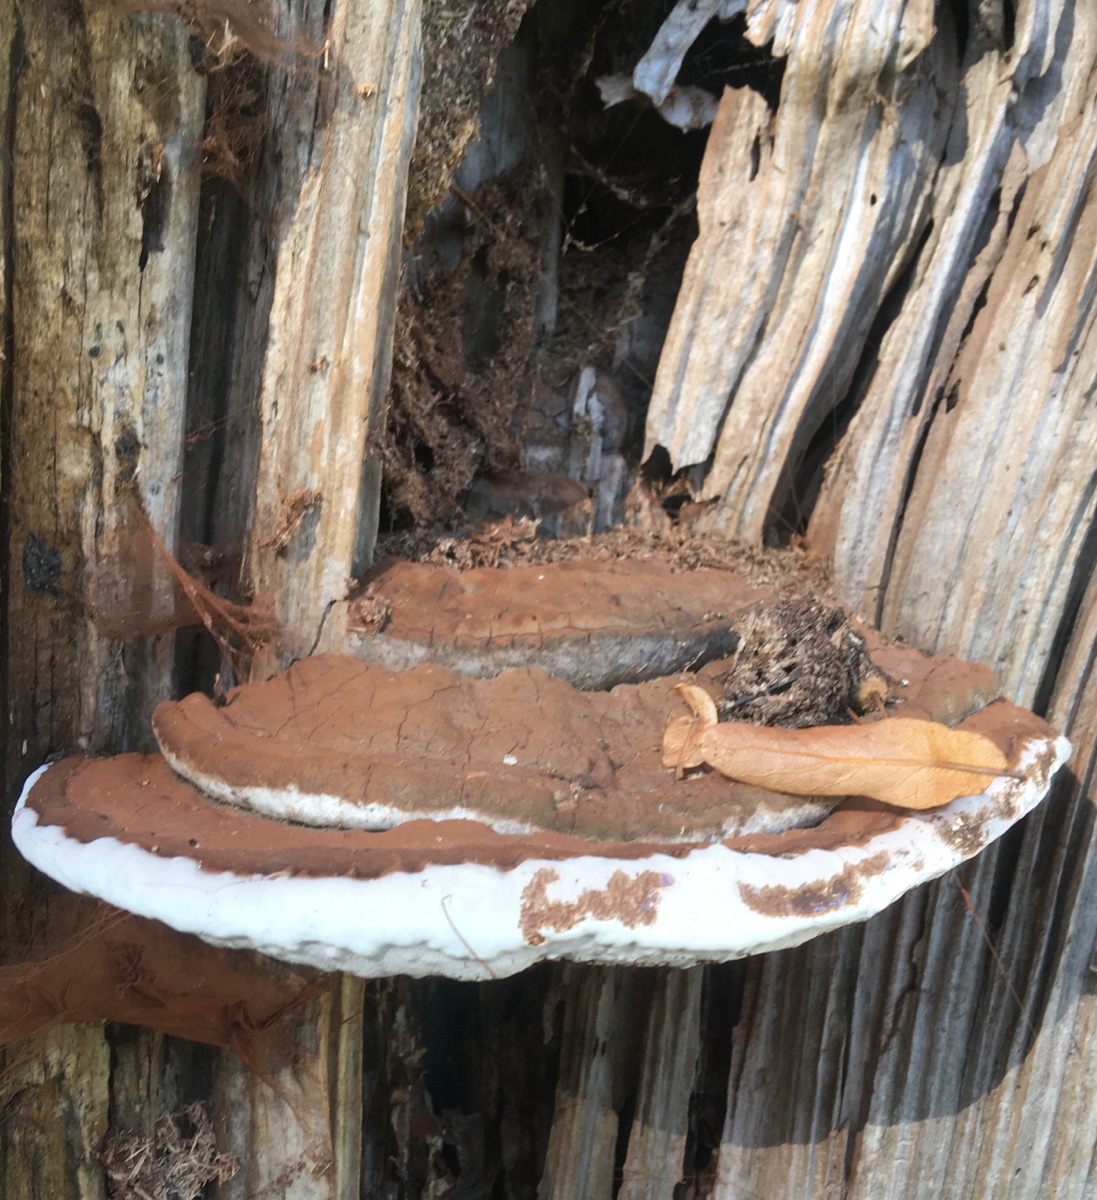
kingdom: Fungi
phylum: Basidiomycota
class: Agaricomycetes
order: Polyporales
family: Polyporaceae
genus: Ganoderma
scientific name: Ganoderma applanatum
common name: flad lakporesvamp
